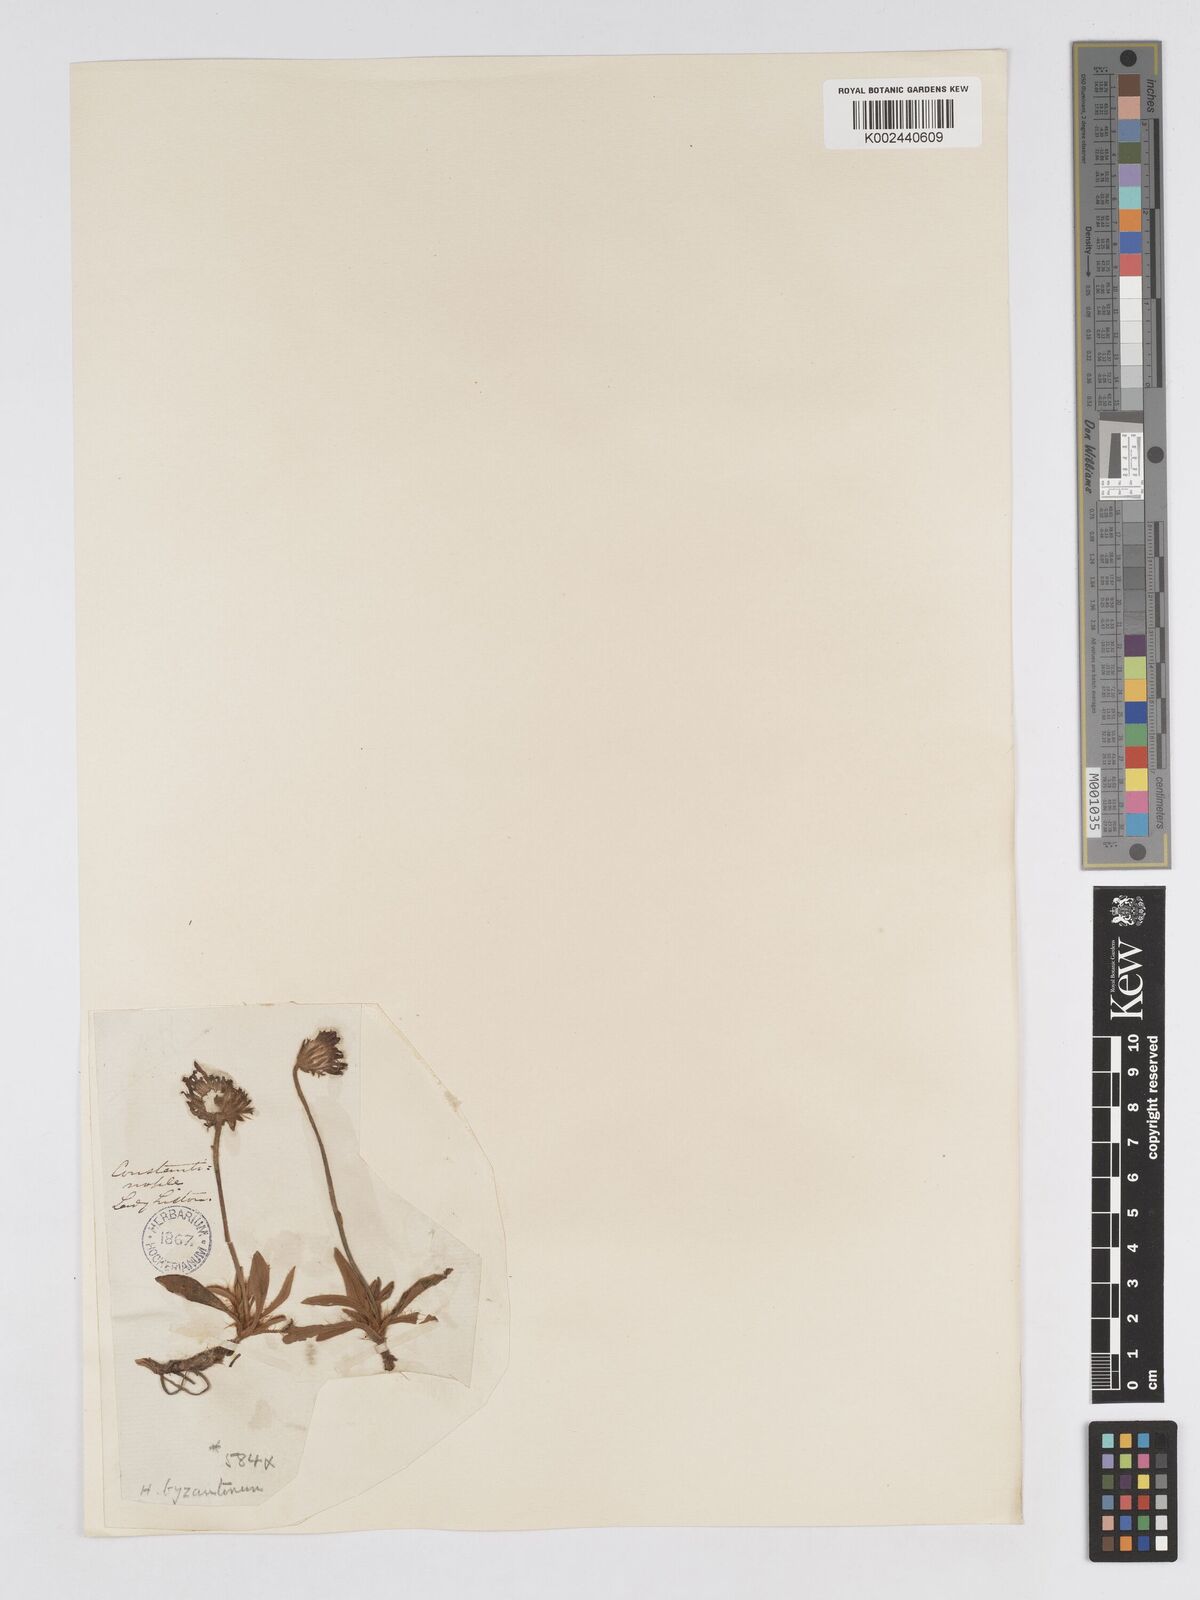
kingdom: Plantae
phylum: Tracheophyta
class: Magnoliopsida
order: Asterales
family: Asteraceae
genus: Pilosella
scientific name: Pilosella byzantina
